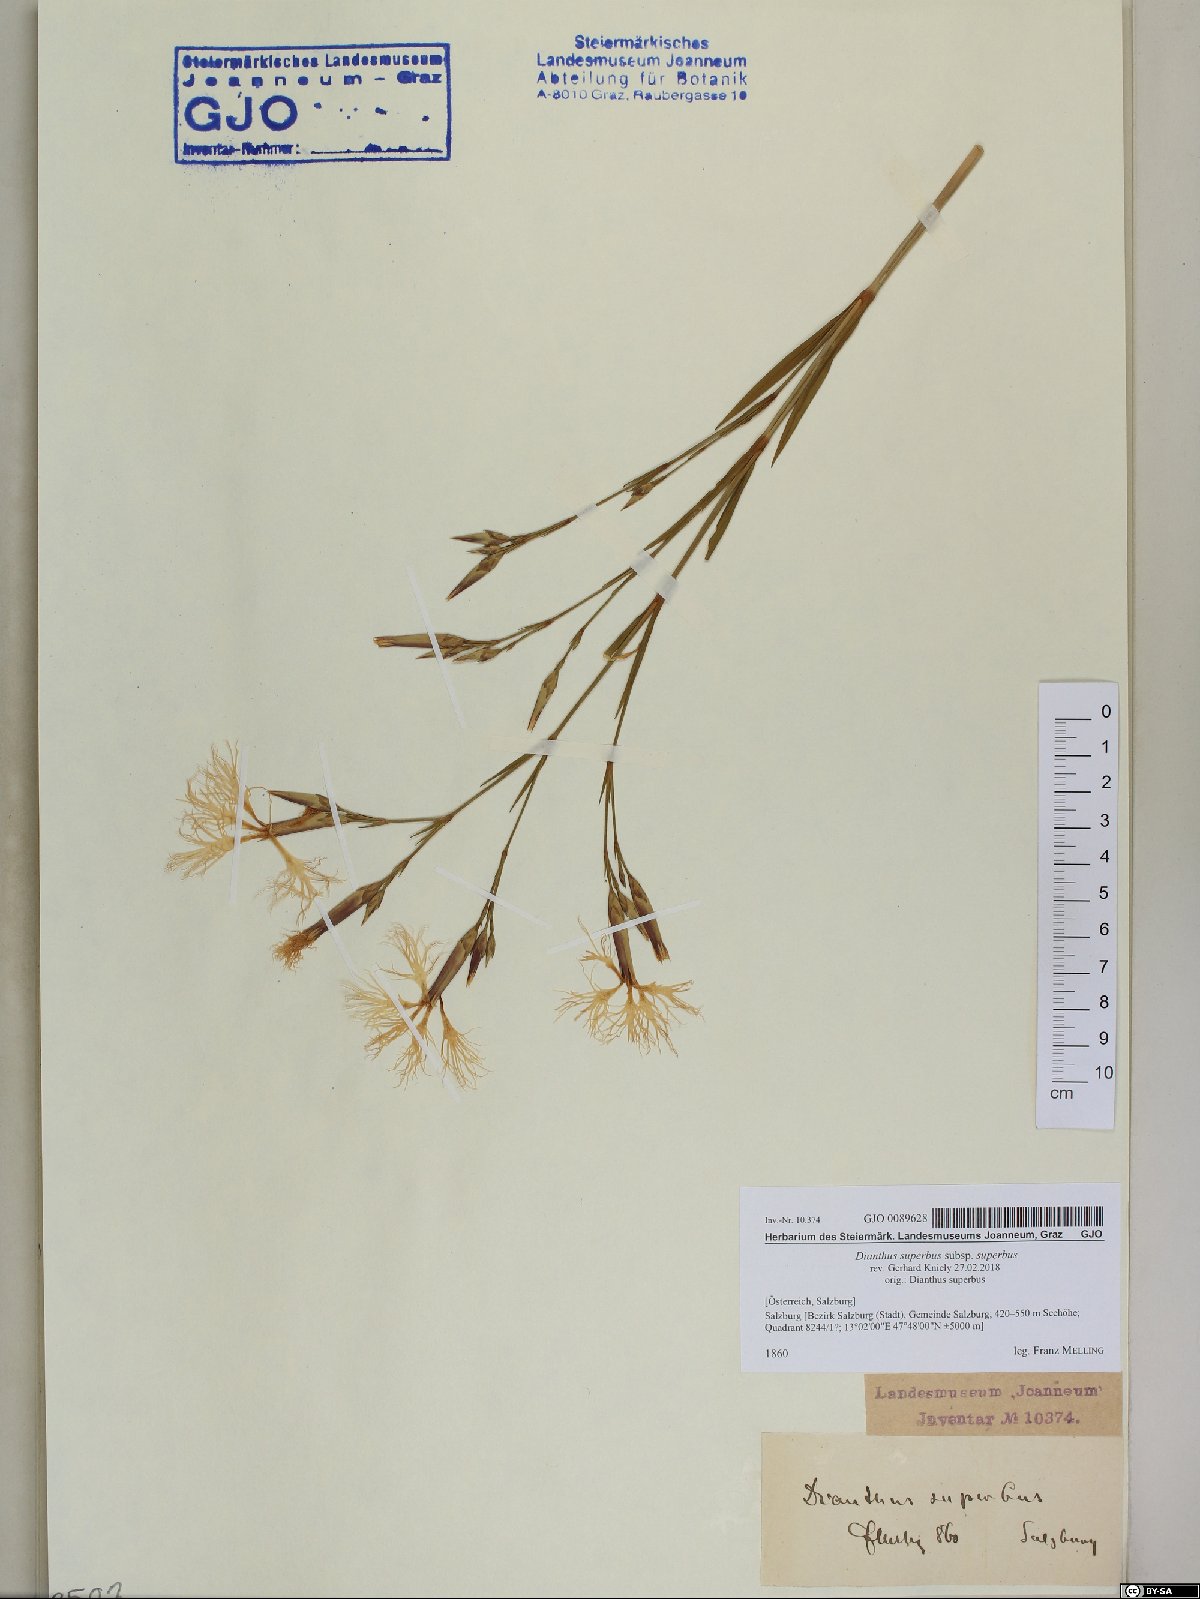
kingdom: Plantae
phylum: Tracheophyta
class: Magnoliopsida
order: Caryophyllales
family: Caryophyllaceae
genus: Dianthus
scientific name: Dianthus superbus
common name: Fringed pink
